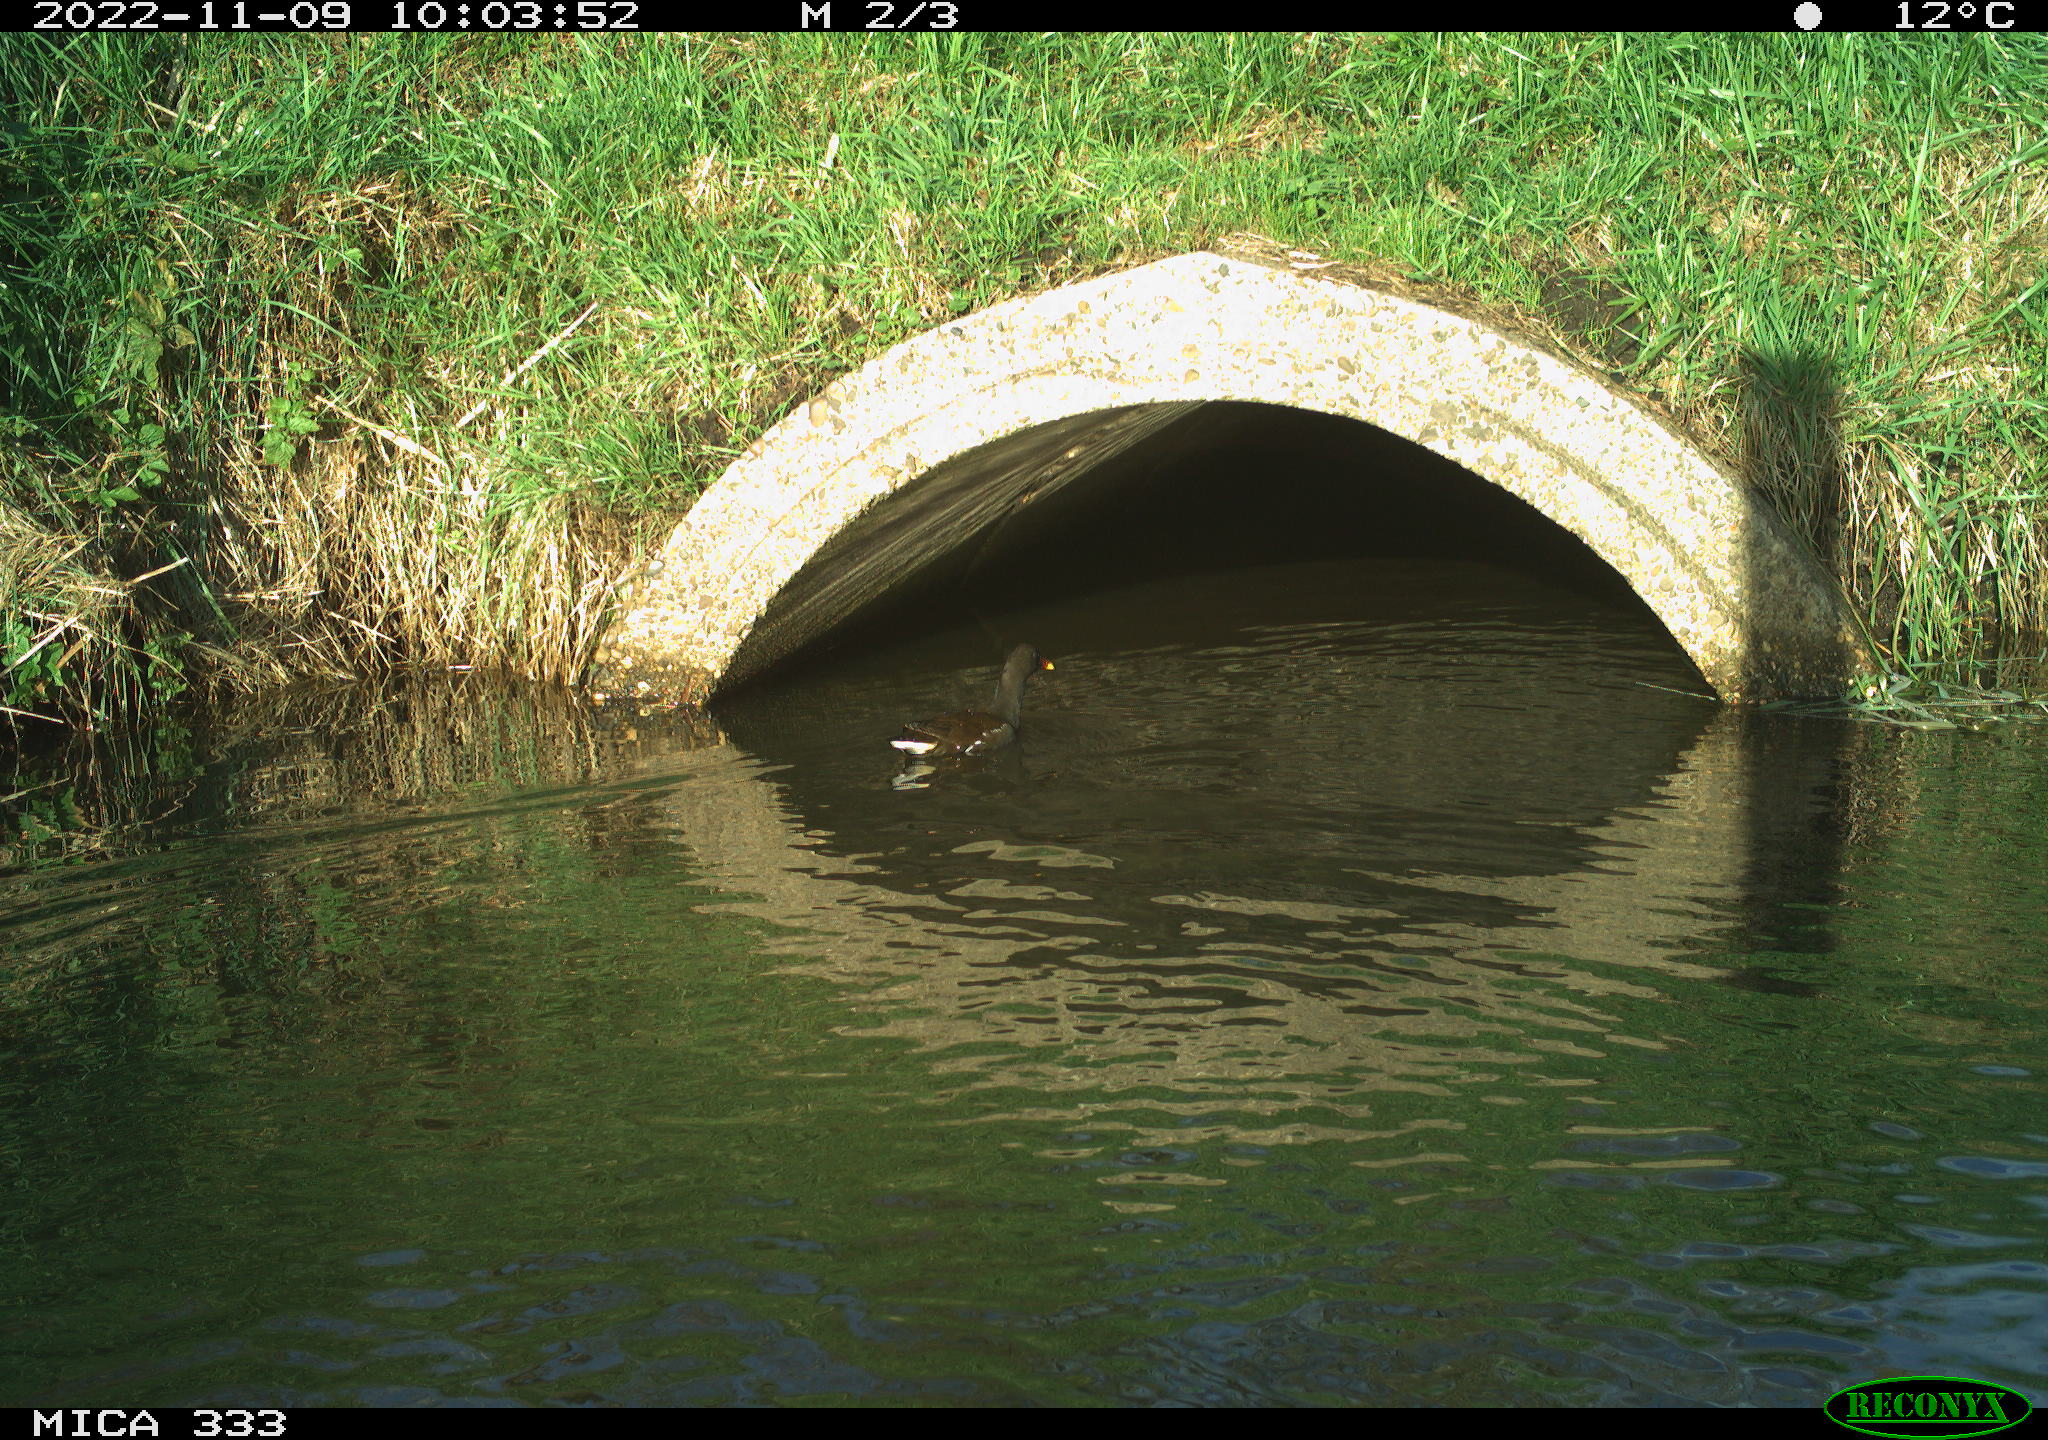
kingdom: Animalia
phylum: Chordata
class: Aves
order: Gruiformes
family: Rallidae
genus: Gallinula
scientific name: Gallinula chloropus
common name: Common moorhen
